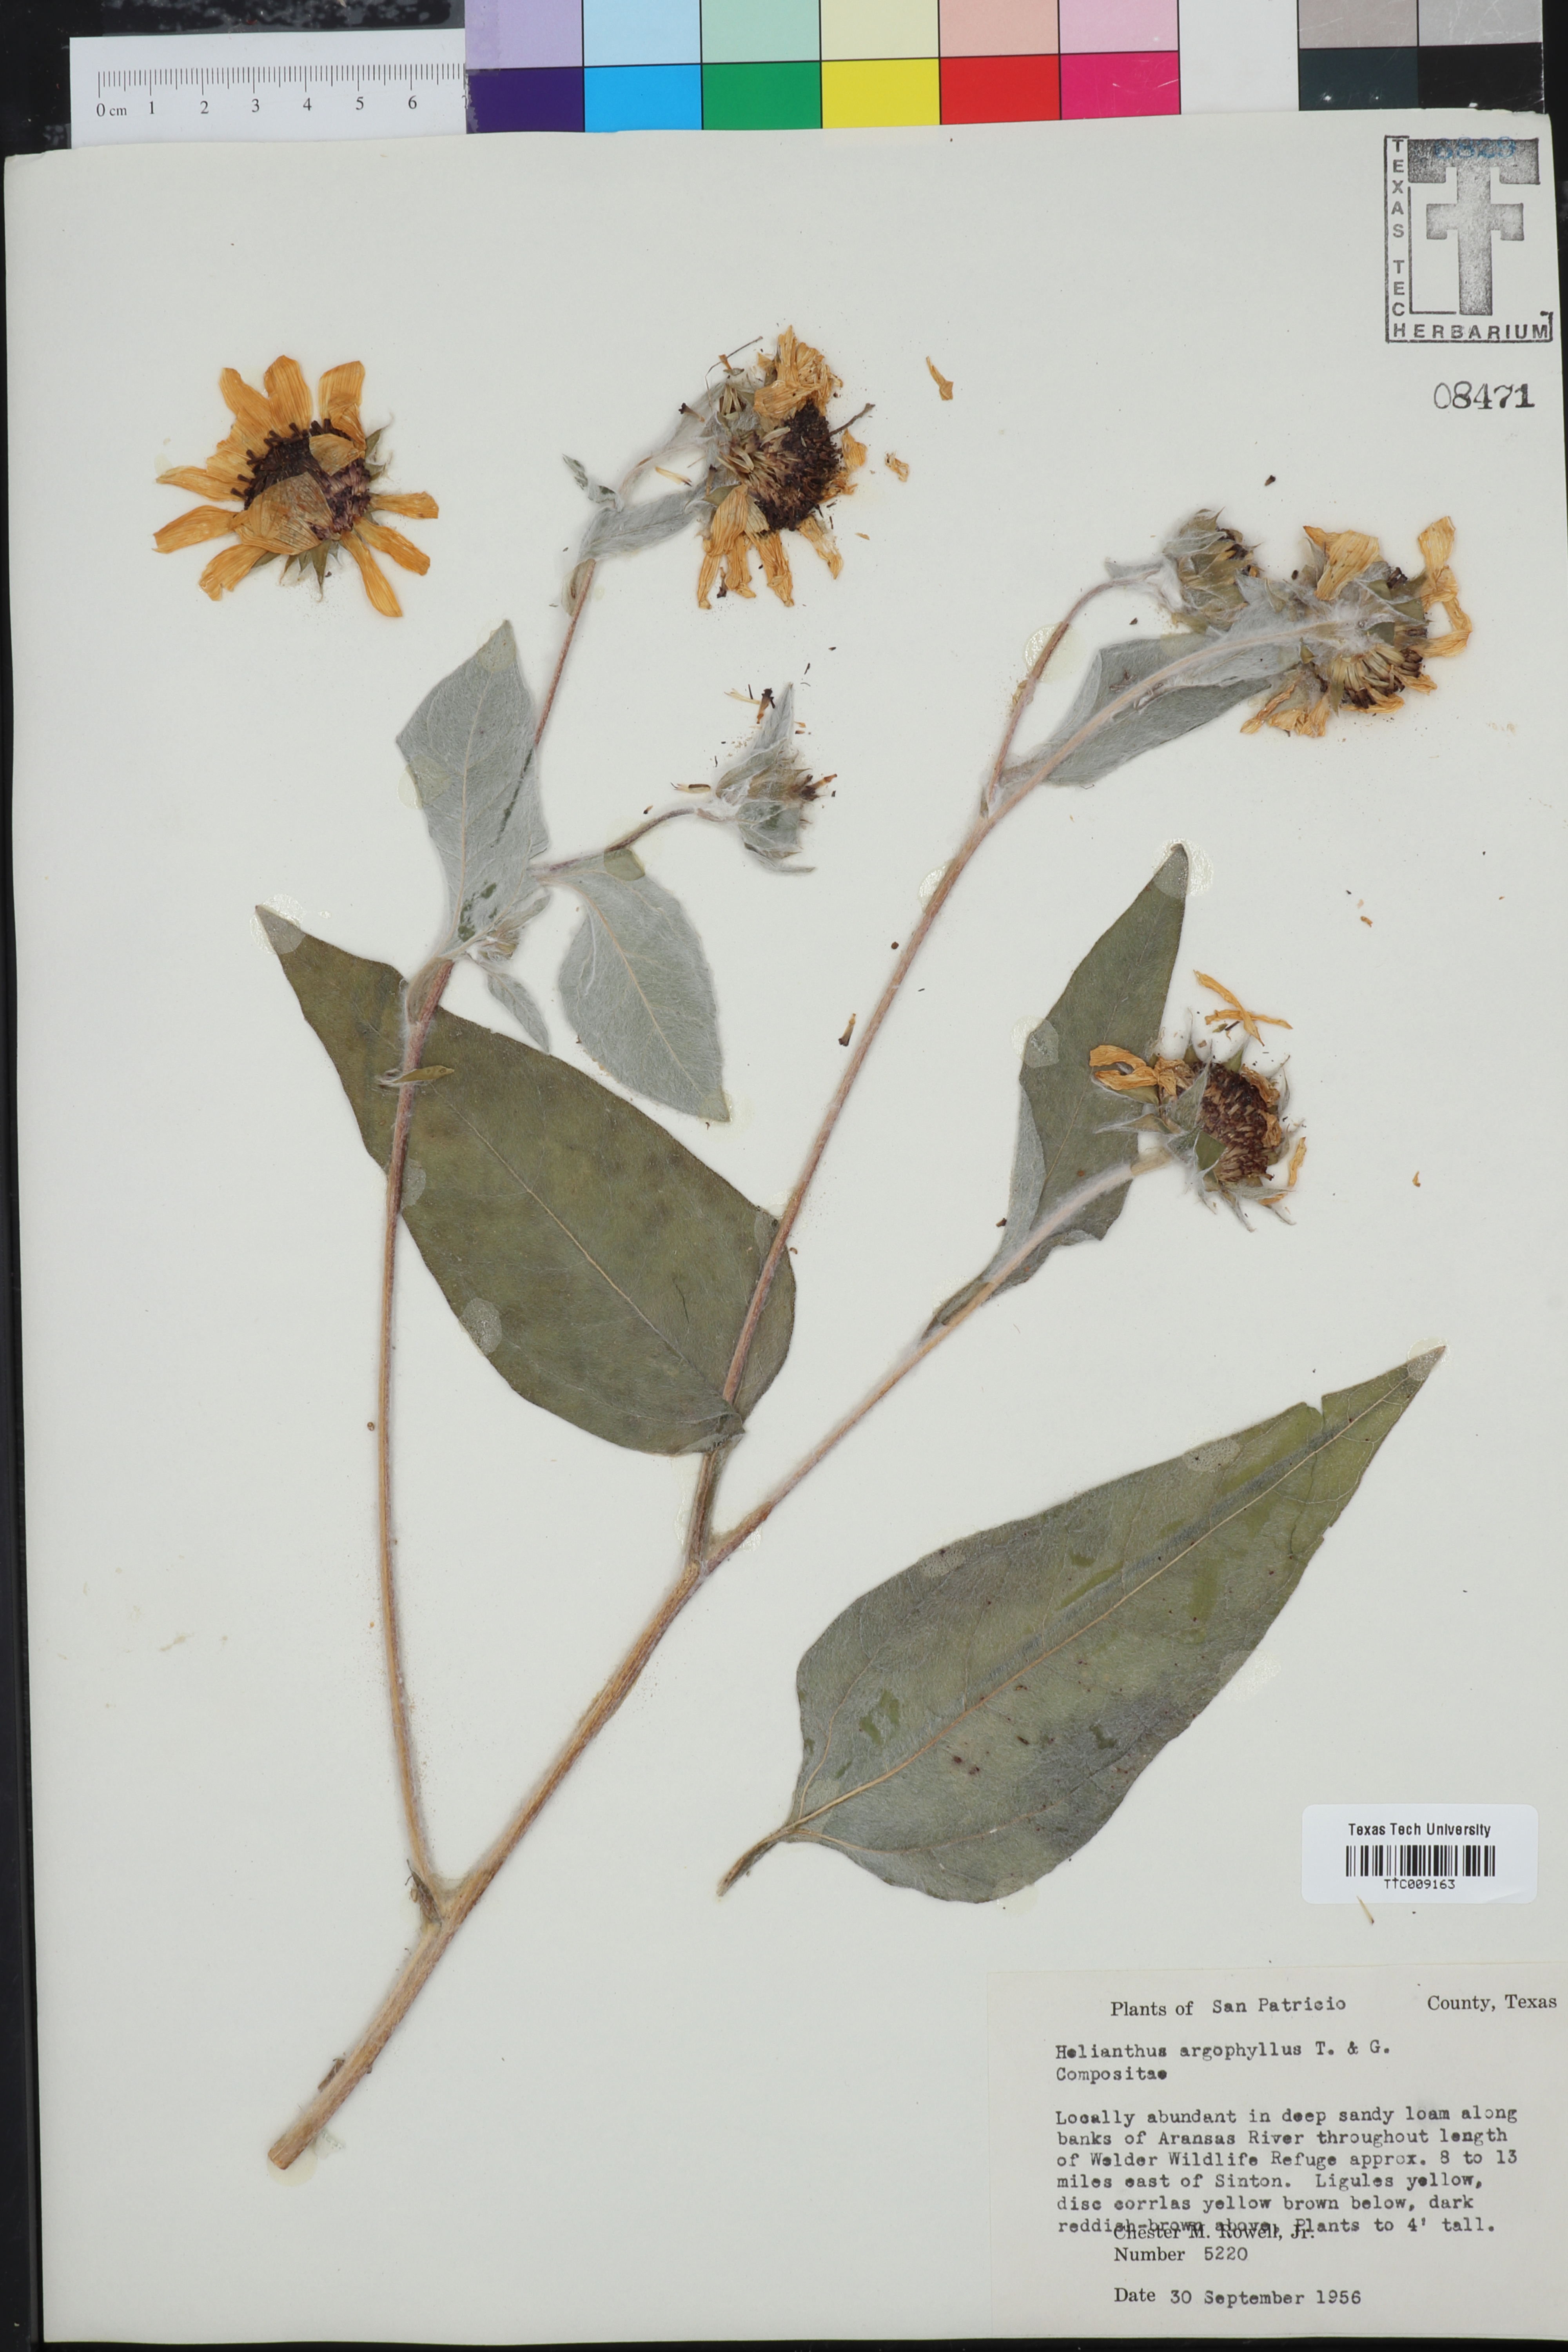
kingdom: Plantae
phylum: Tracheophyta
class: Magnoliopsida
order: Asterales
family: Asteraceae
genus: Helianthus
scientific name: Helianthus argophyllus
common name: Silverleaf sunflower
